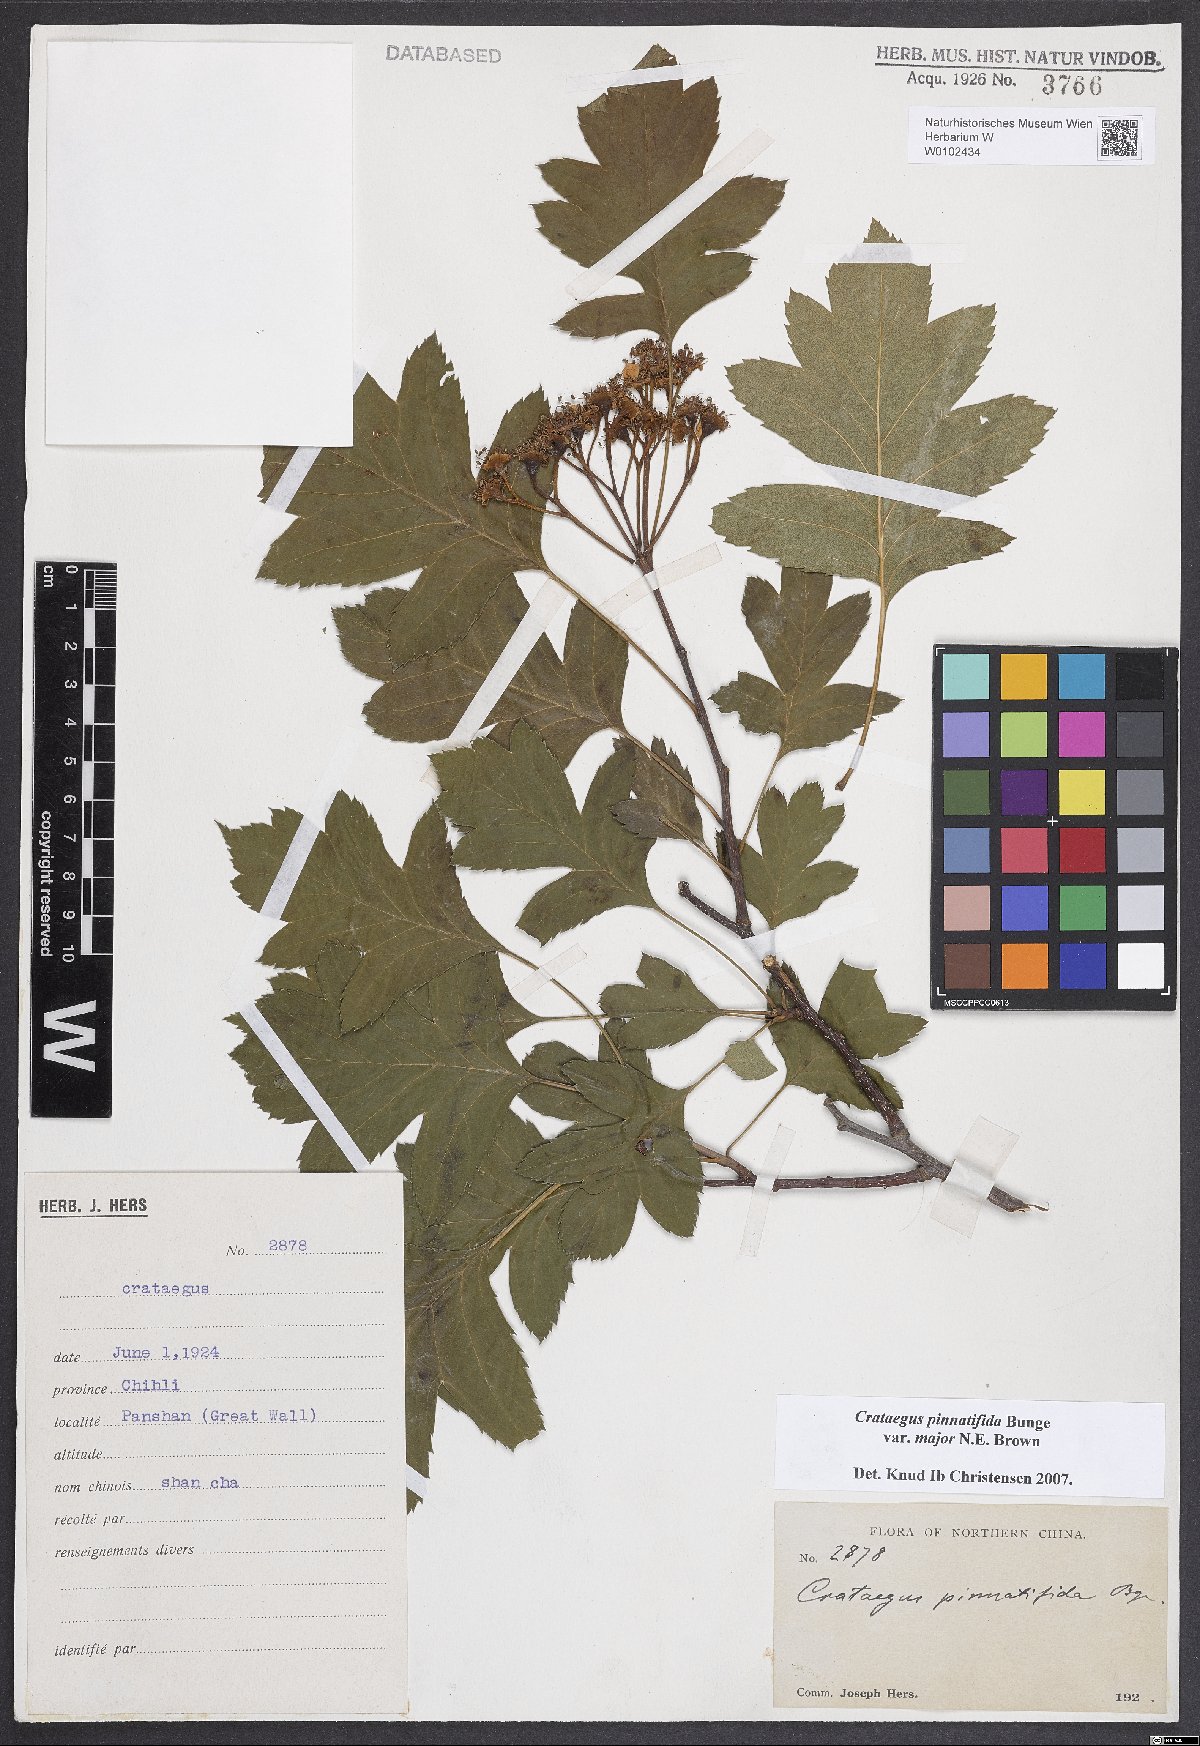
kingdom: Plantae
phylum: Tracheophyta
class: Magnoliopsida
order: Rosales
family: Rosaceae
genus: Crataegus
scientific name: Crataegus pinnatifida
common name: Chinese haw
